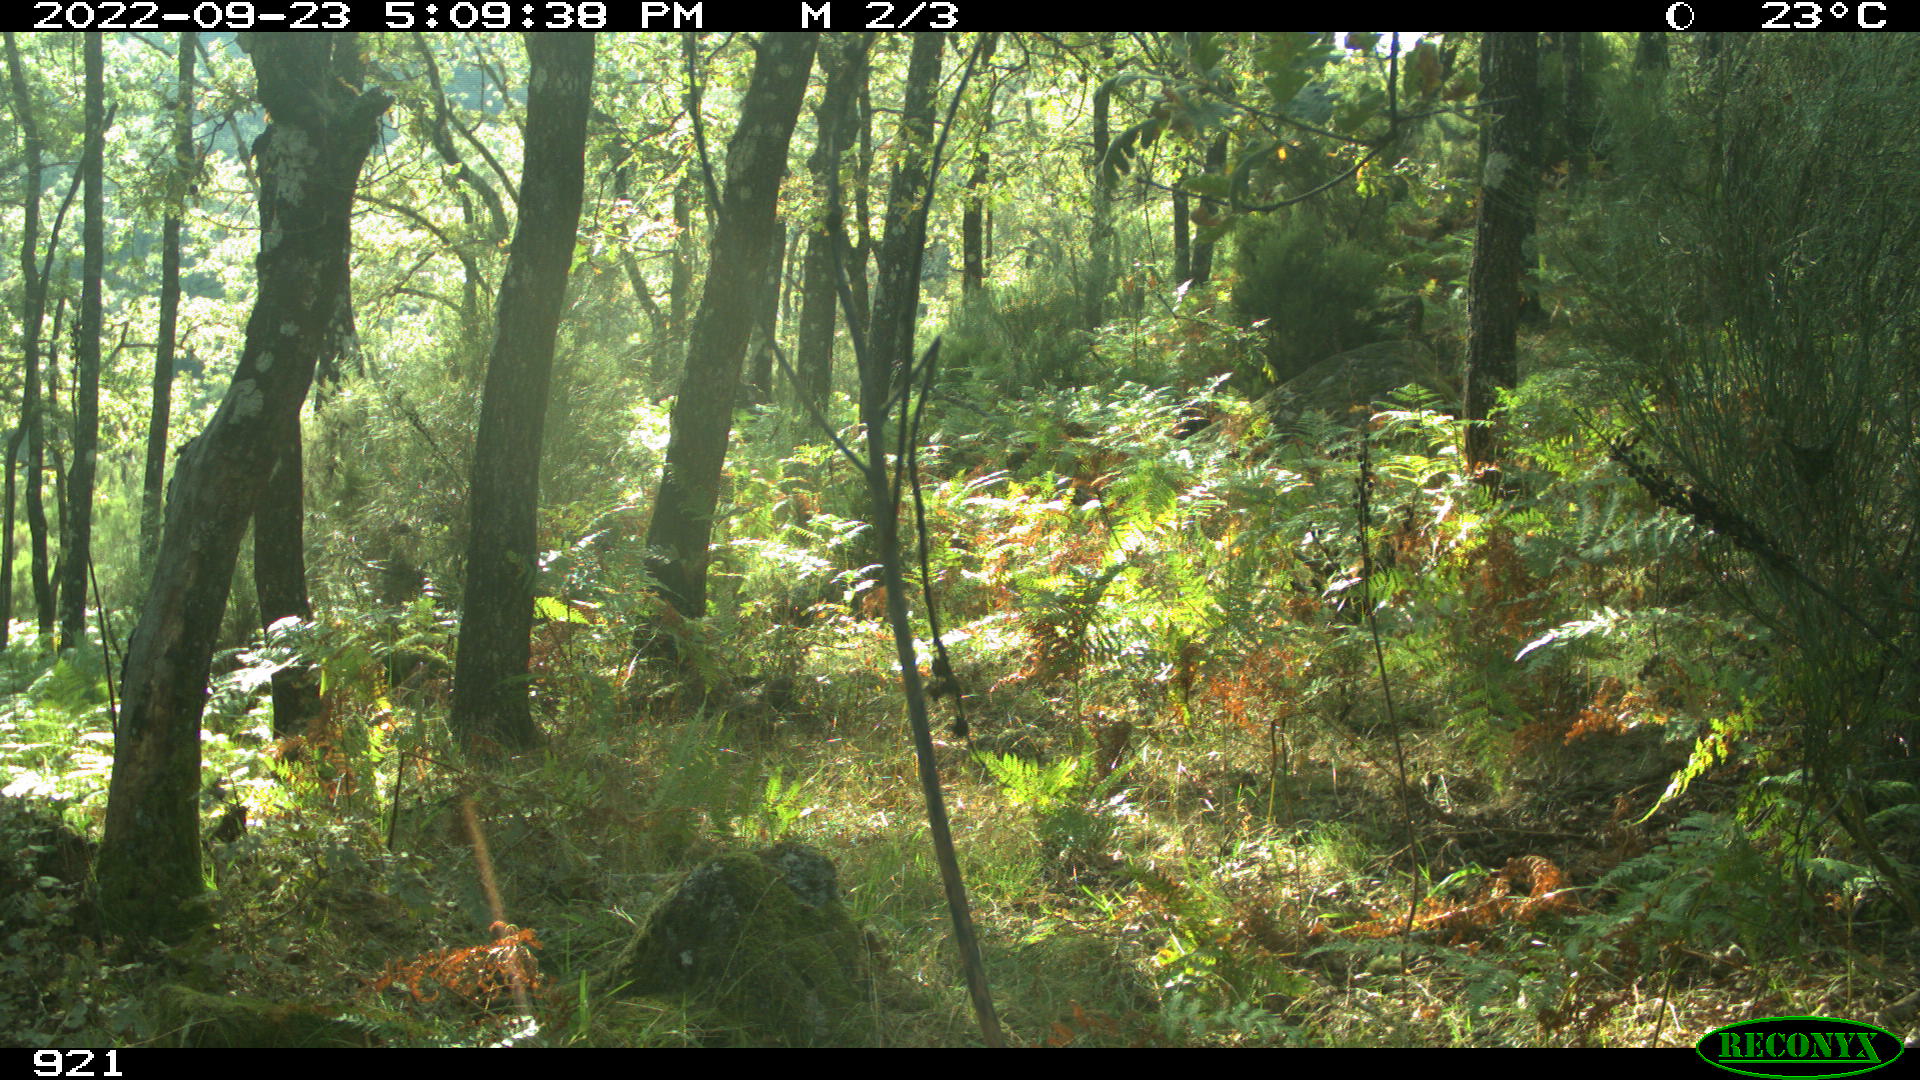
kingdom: Animalia
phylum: Chordata
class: Mammalia
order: Perissodactyla
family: Equidae
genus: Equus
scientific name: Equus caballus
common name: Horse
